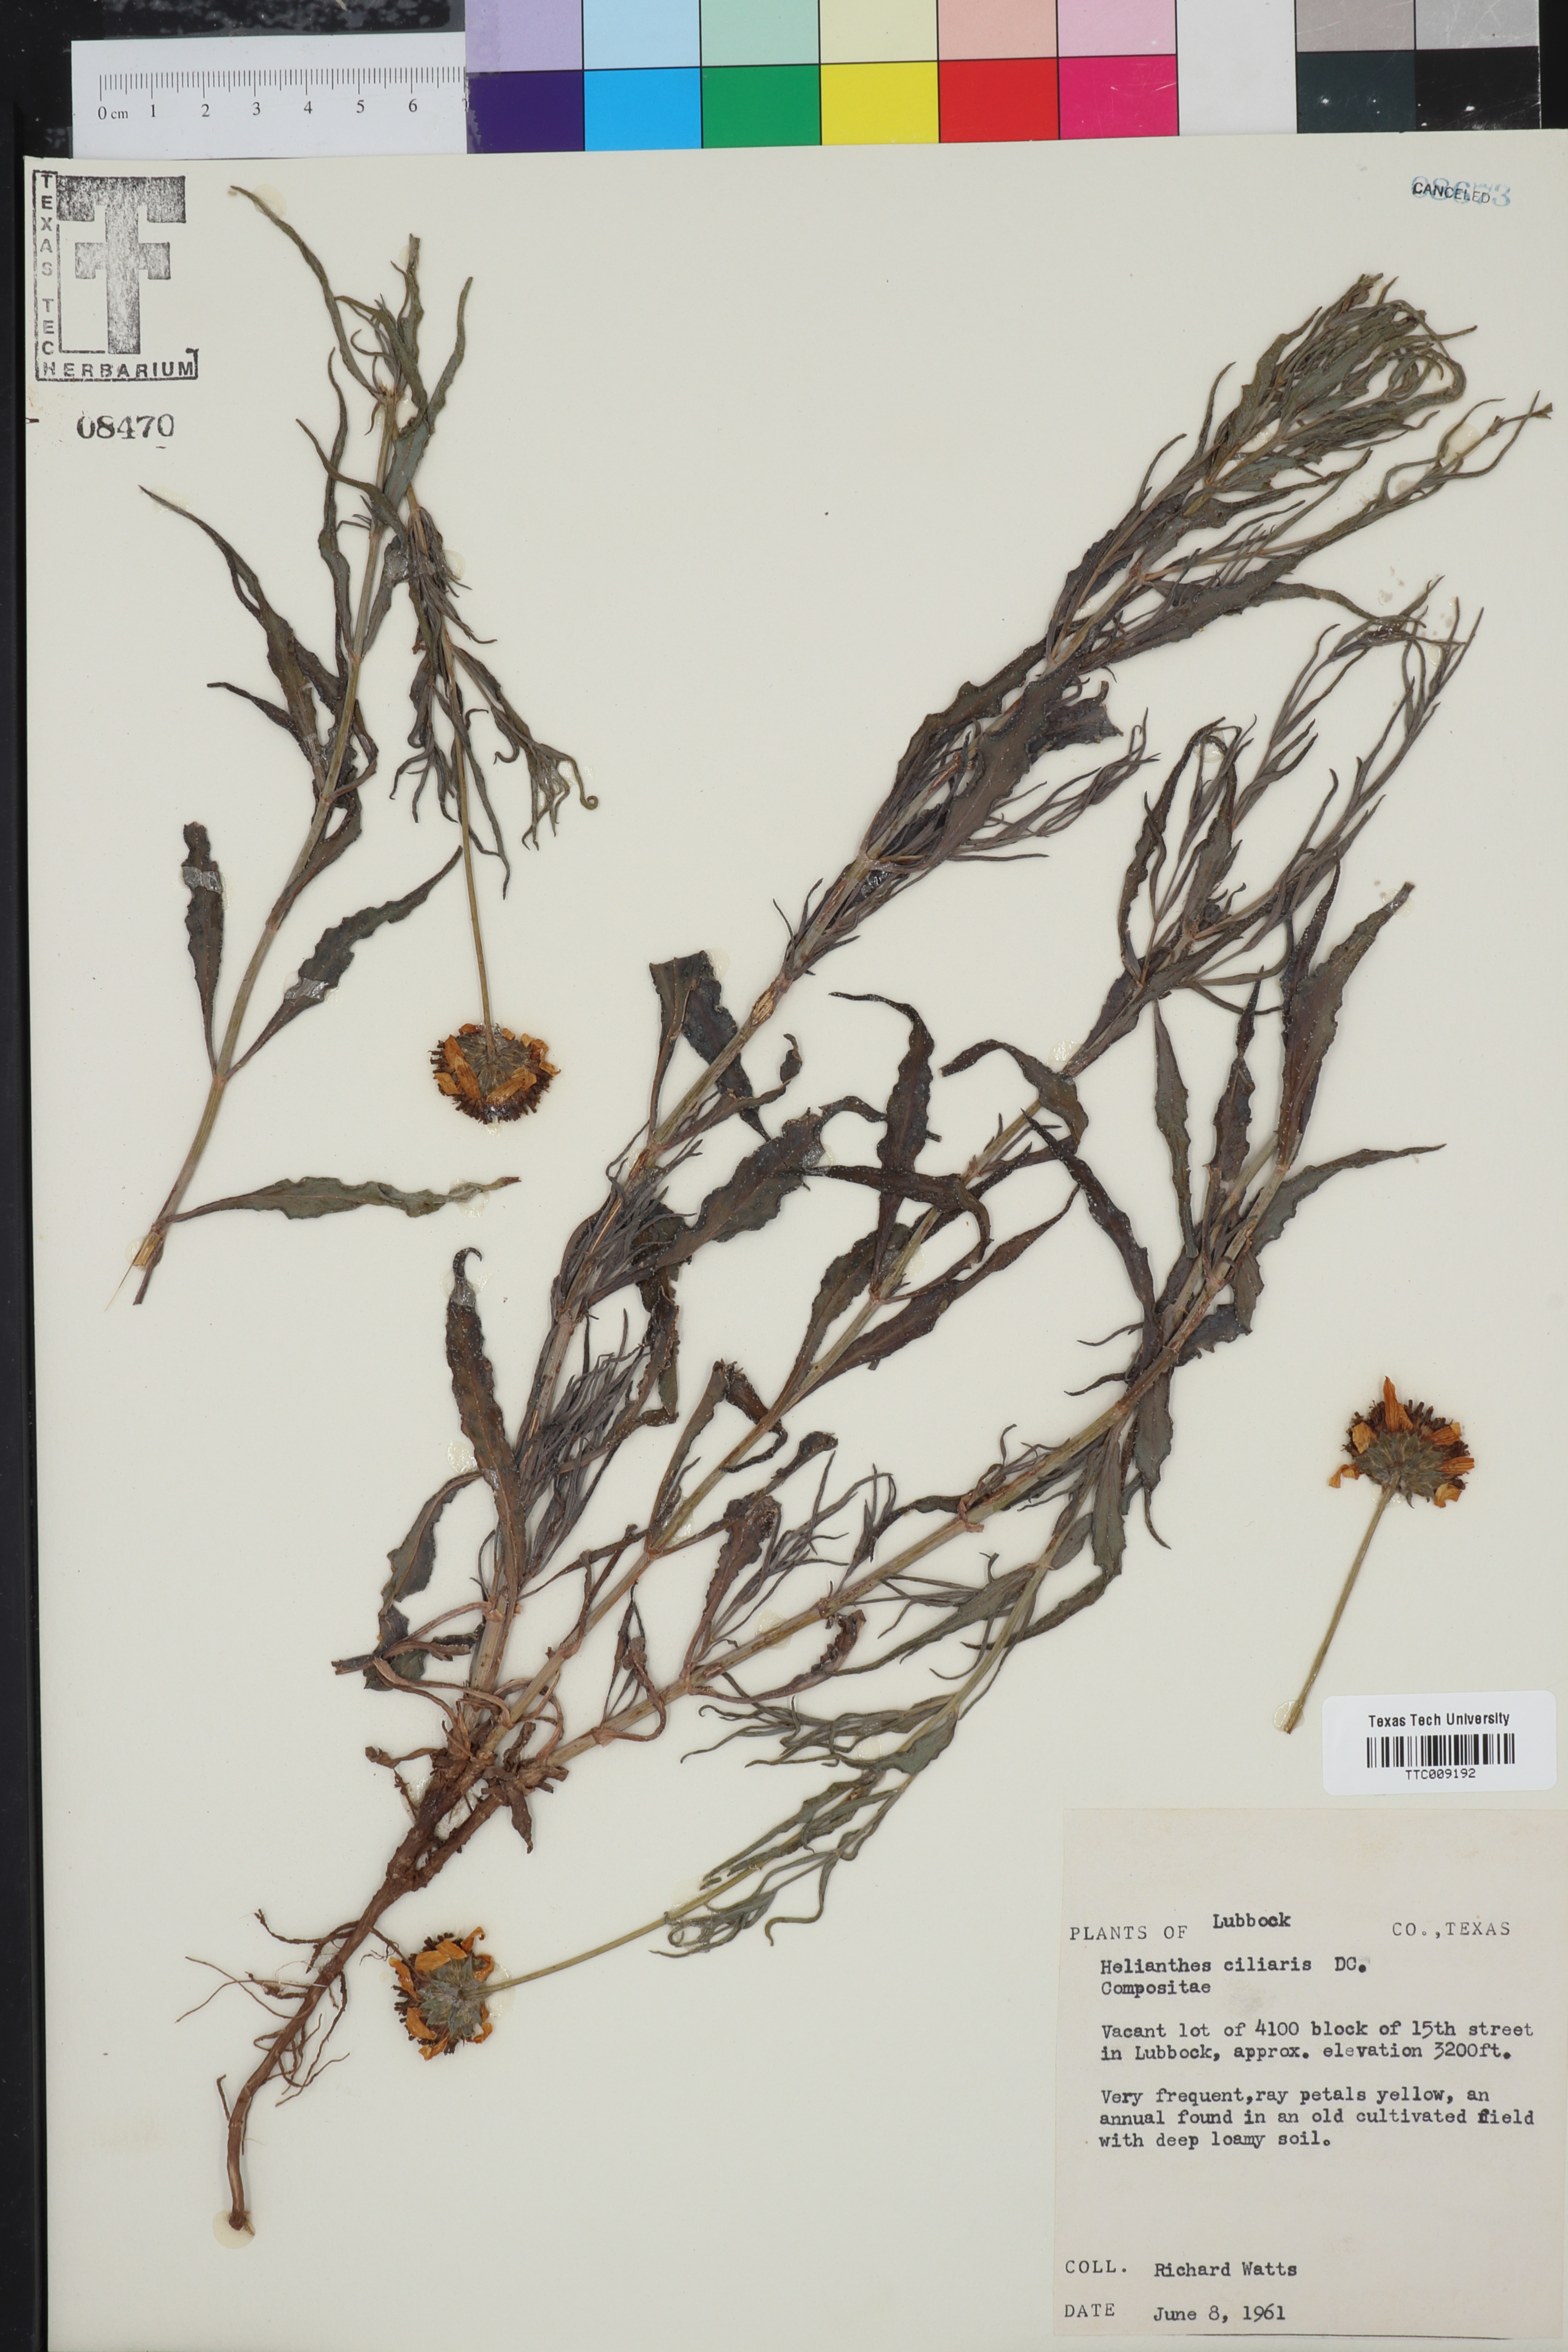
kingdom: Plantae
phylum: Tracheophyta
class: Magnoliopsida
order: Asterales
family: Asteraceae
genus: Helianthus
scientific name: Helianthus ciliaris
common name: Texas blueweed
